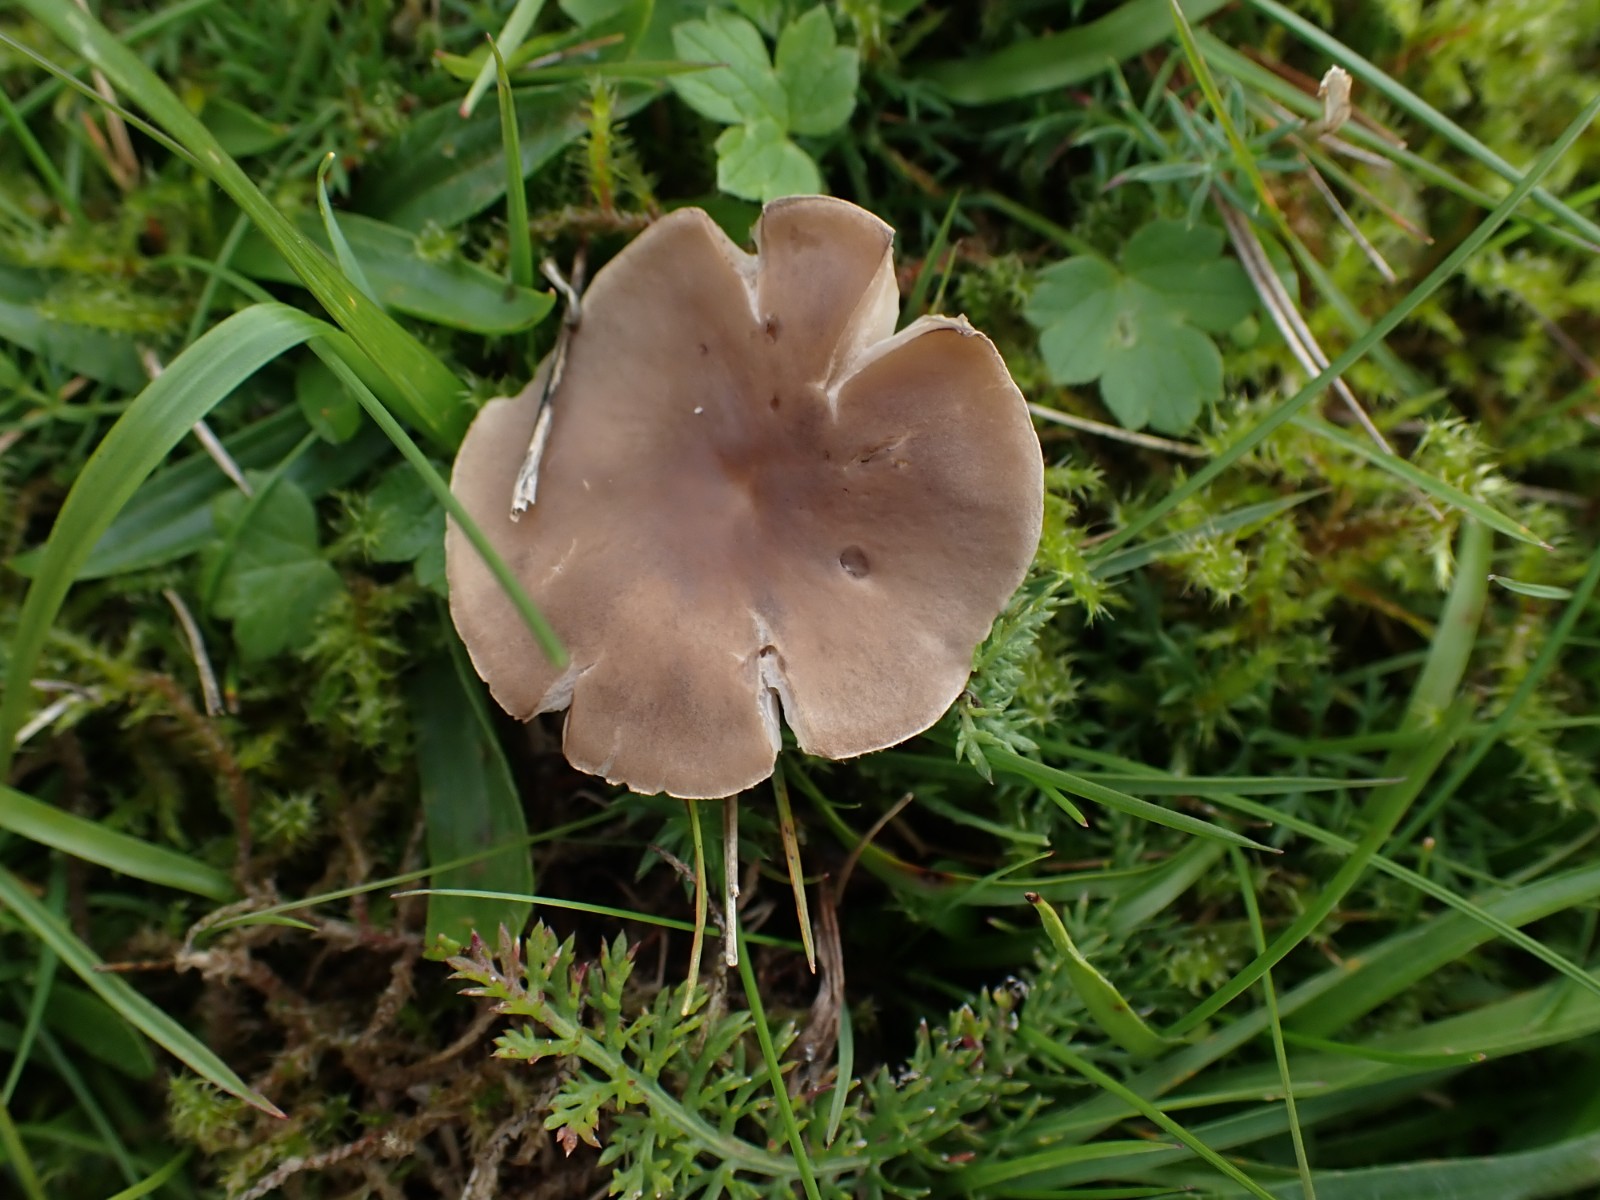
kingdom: Fungi
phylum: Basidiomycota
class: Agaricomycetes
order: Agaricales
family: Tricholomataceae
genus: Dermoloma
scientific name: Dermoloma cuneifolium
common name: eng-nonnehat
